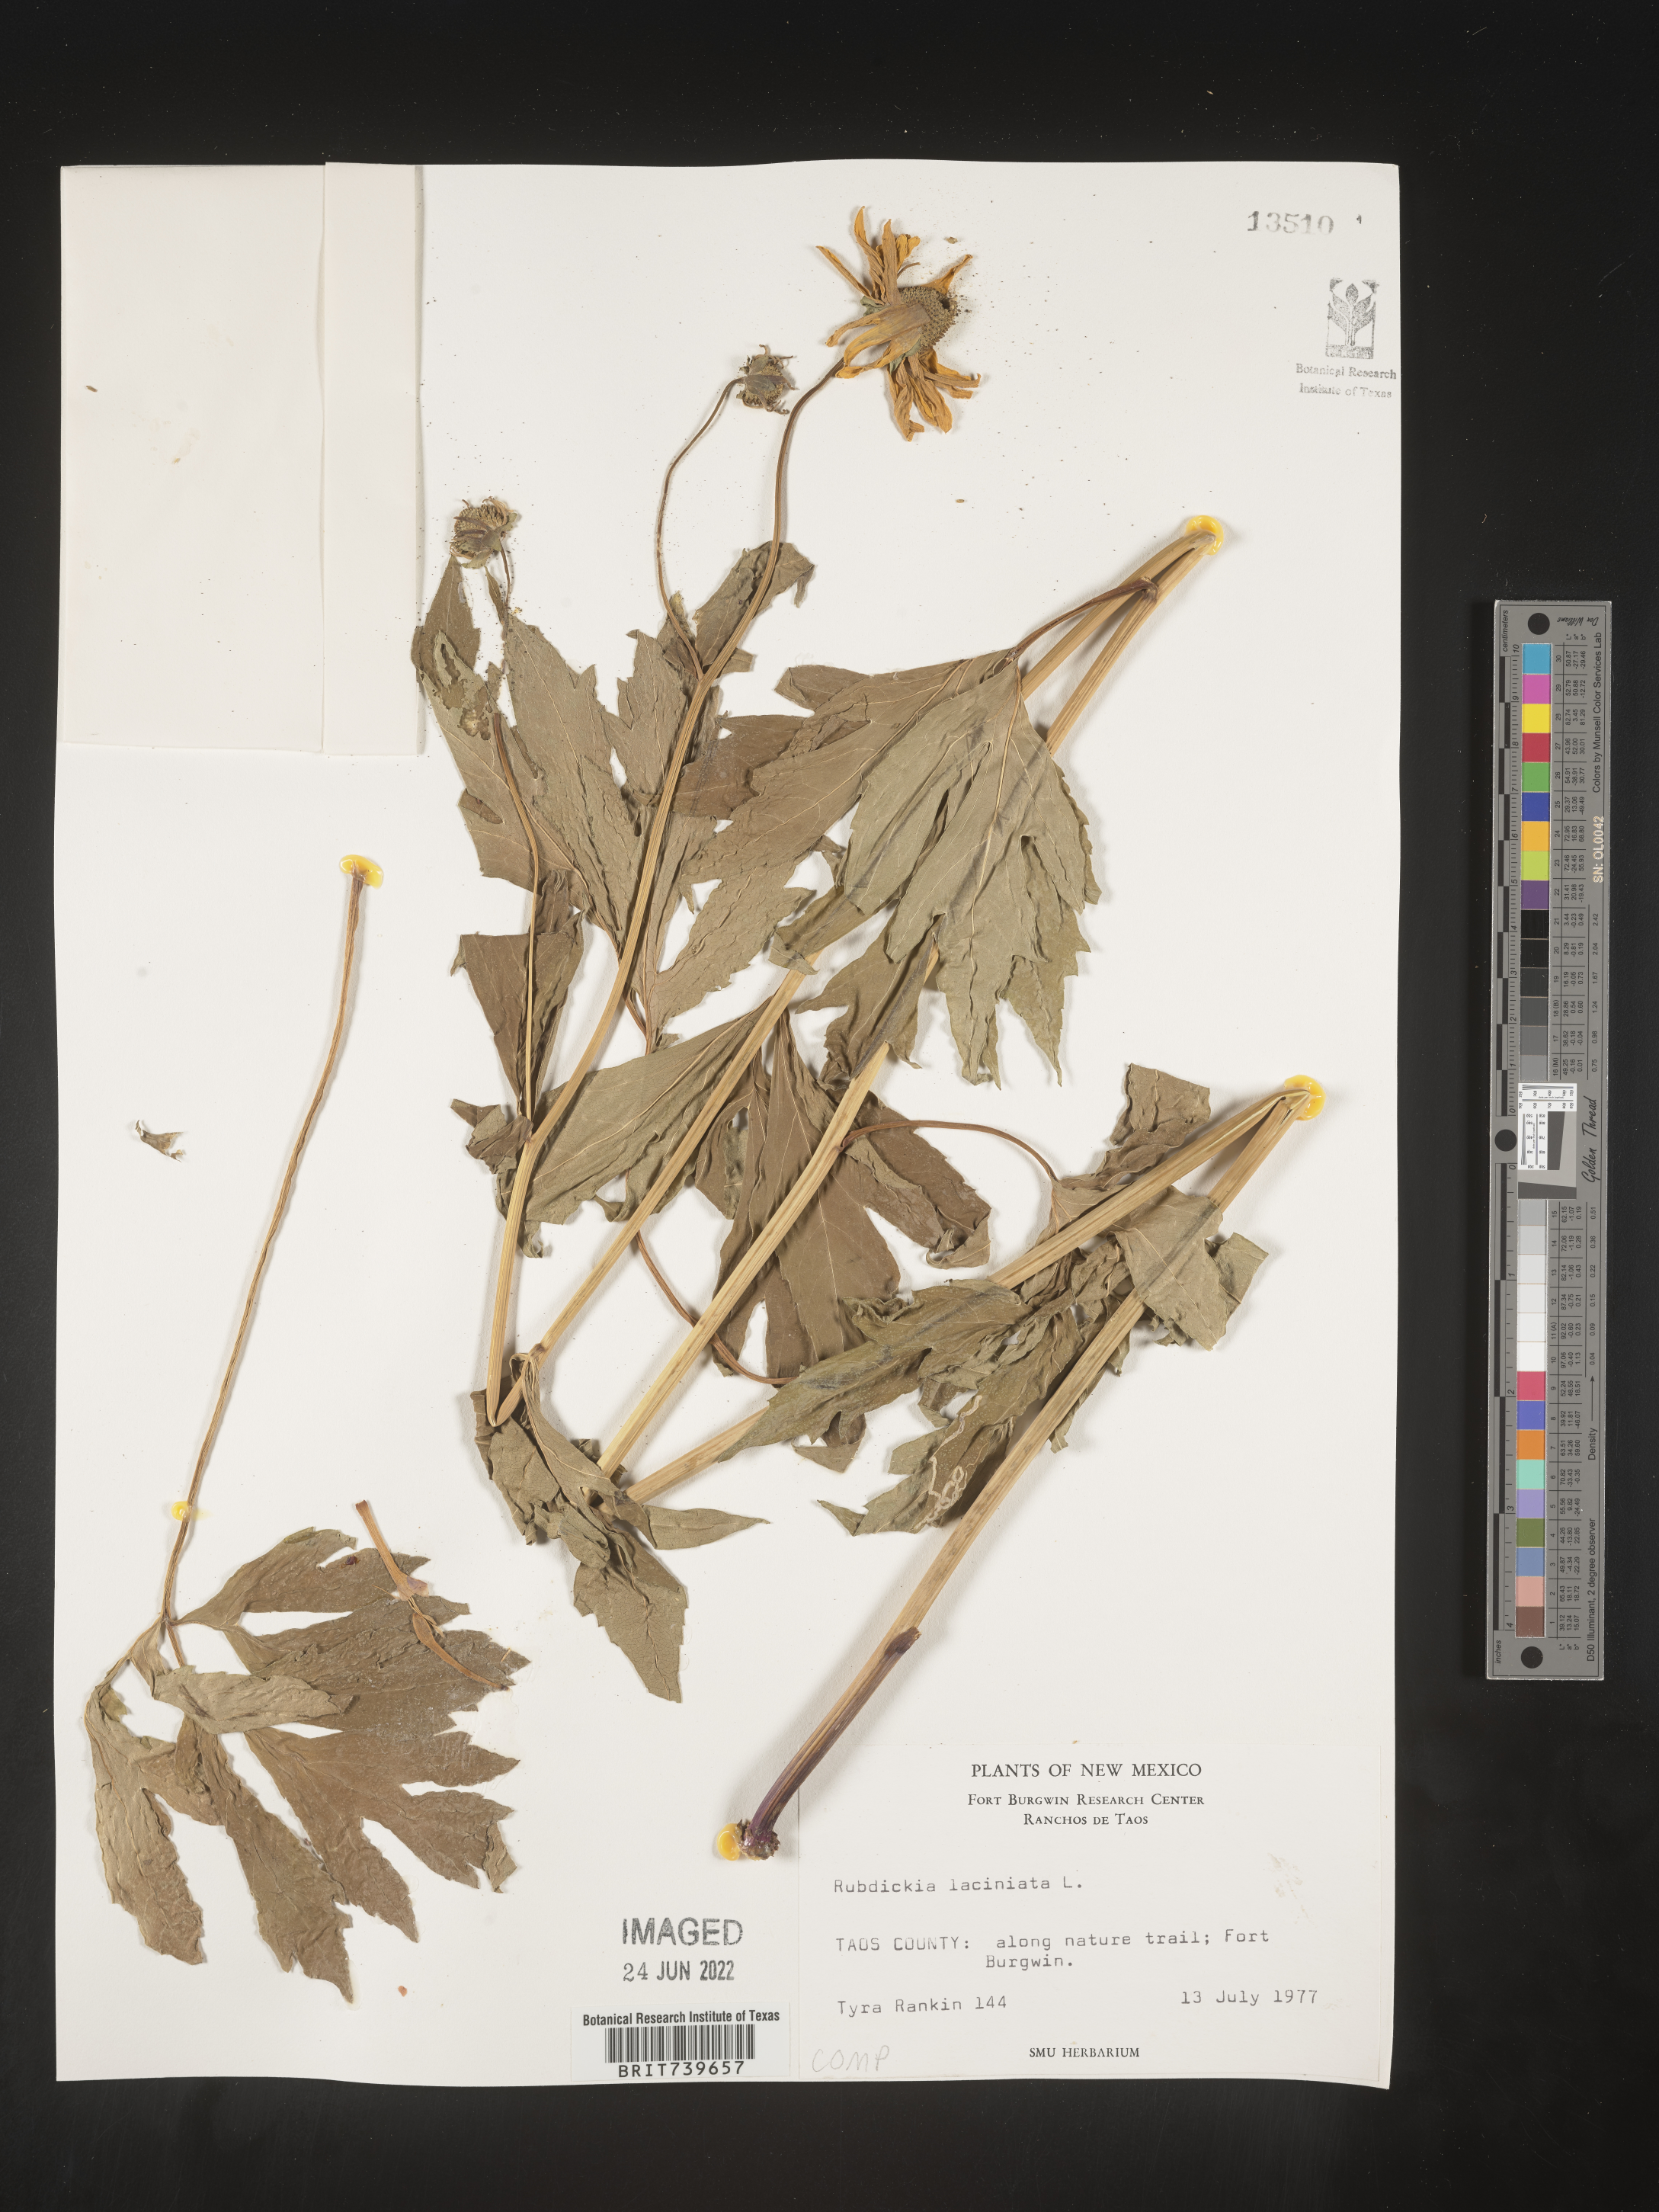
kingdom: Plantae
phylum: Tracheophyta
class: Magnoliopsida
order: Asterales
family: Asteraceae
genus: Rudbeckia
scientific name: Rudbeckia laciniata
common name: Coneflower
